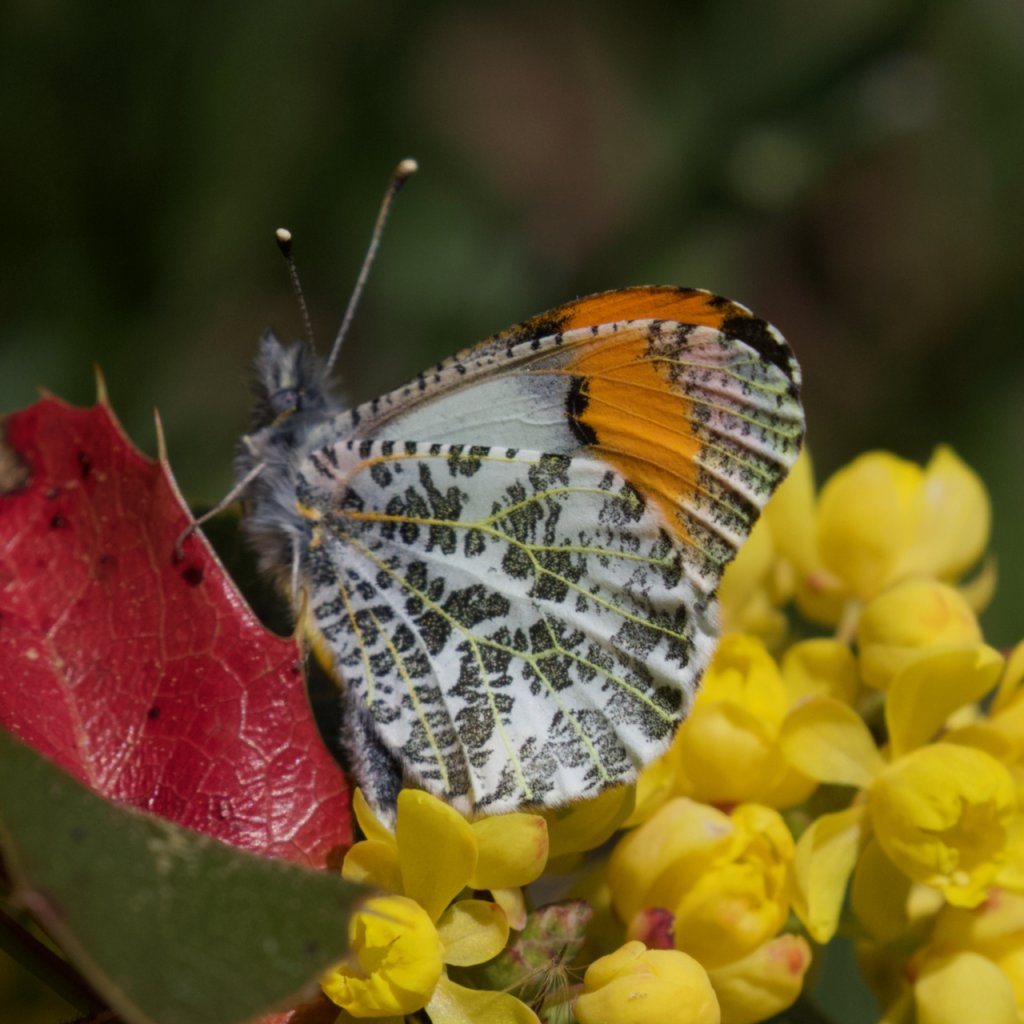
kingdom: Animalia
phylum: Arthropoda
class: Insecta
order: Lepidoptera
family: Pieridae
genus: Anthocharis
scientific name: Anthocharis sara
